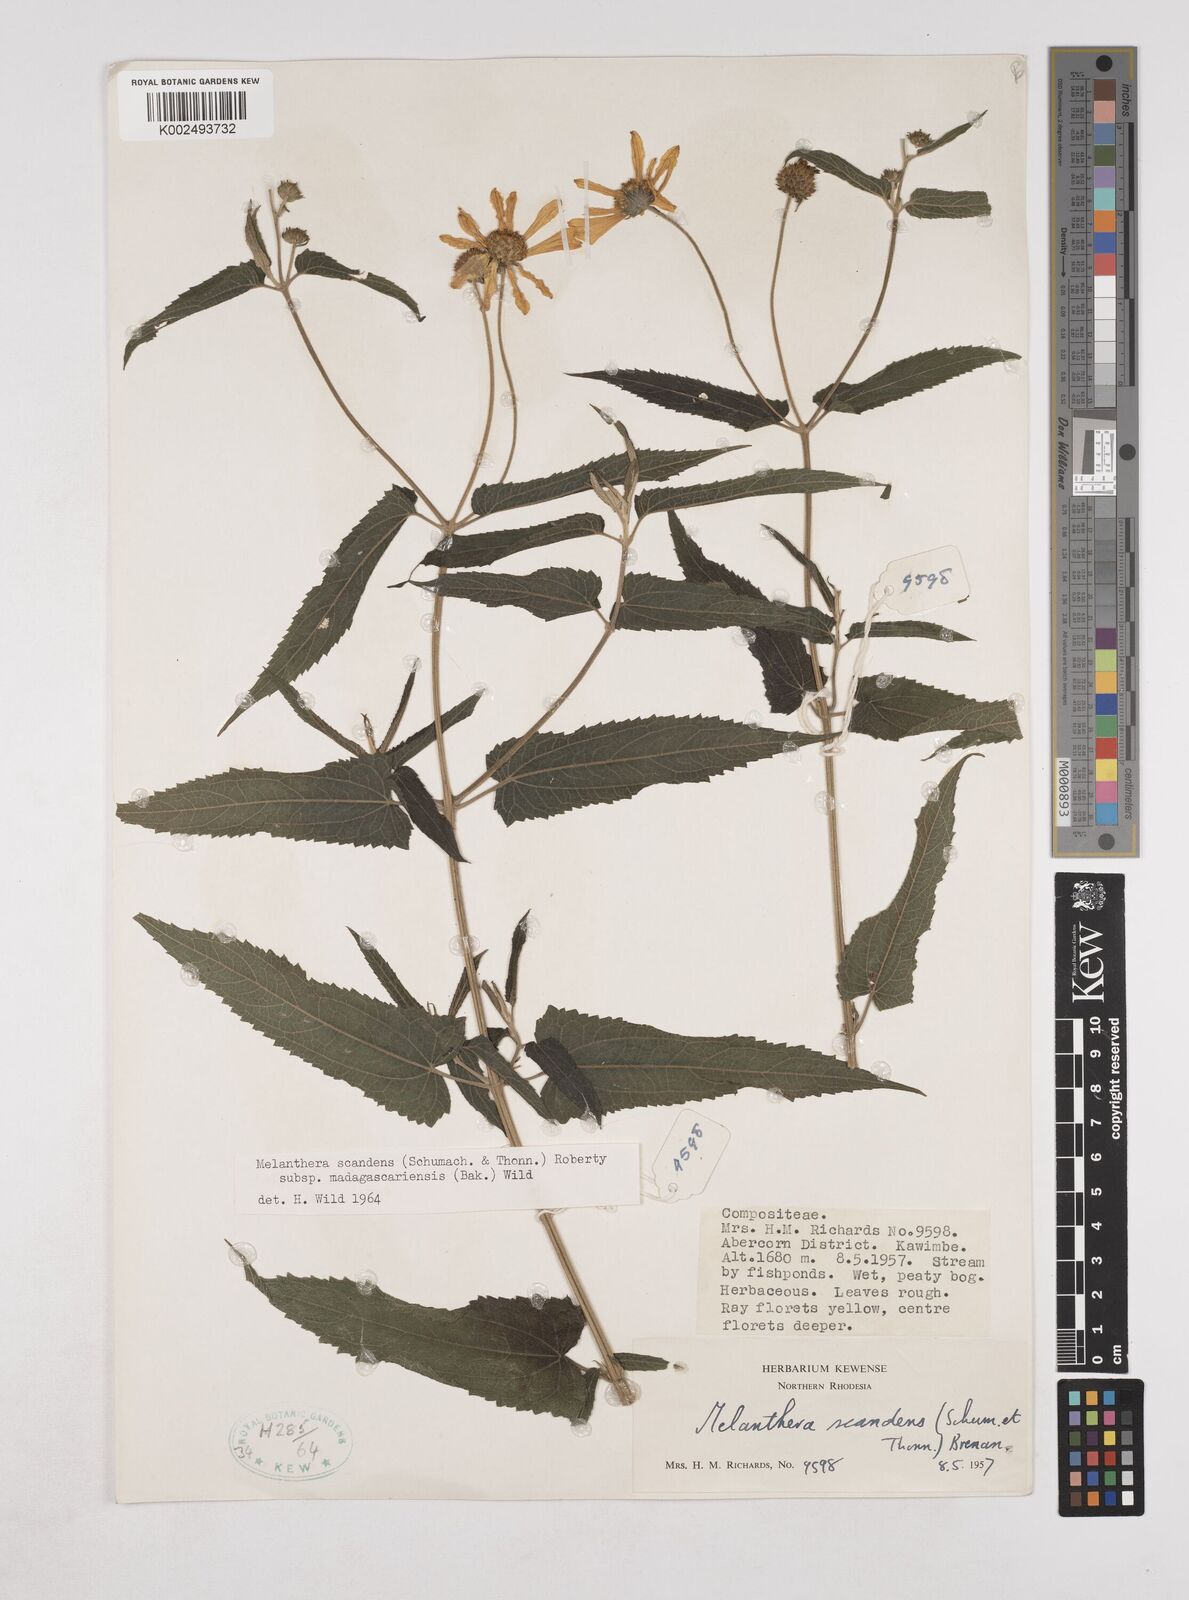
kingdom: Plantae
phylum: Tracheophyta
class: Magnoliopsida
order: Asterales
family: Asteraceae
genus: Lipotriche
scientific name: Lipotriche scandens
